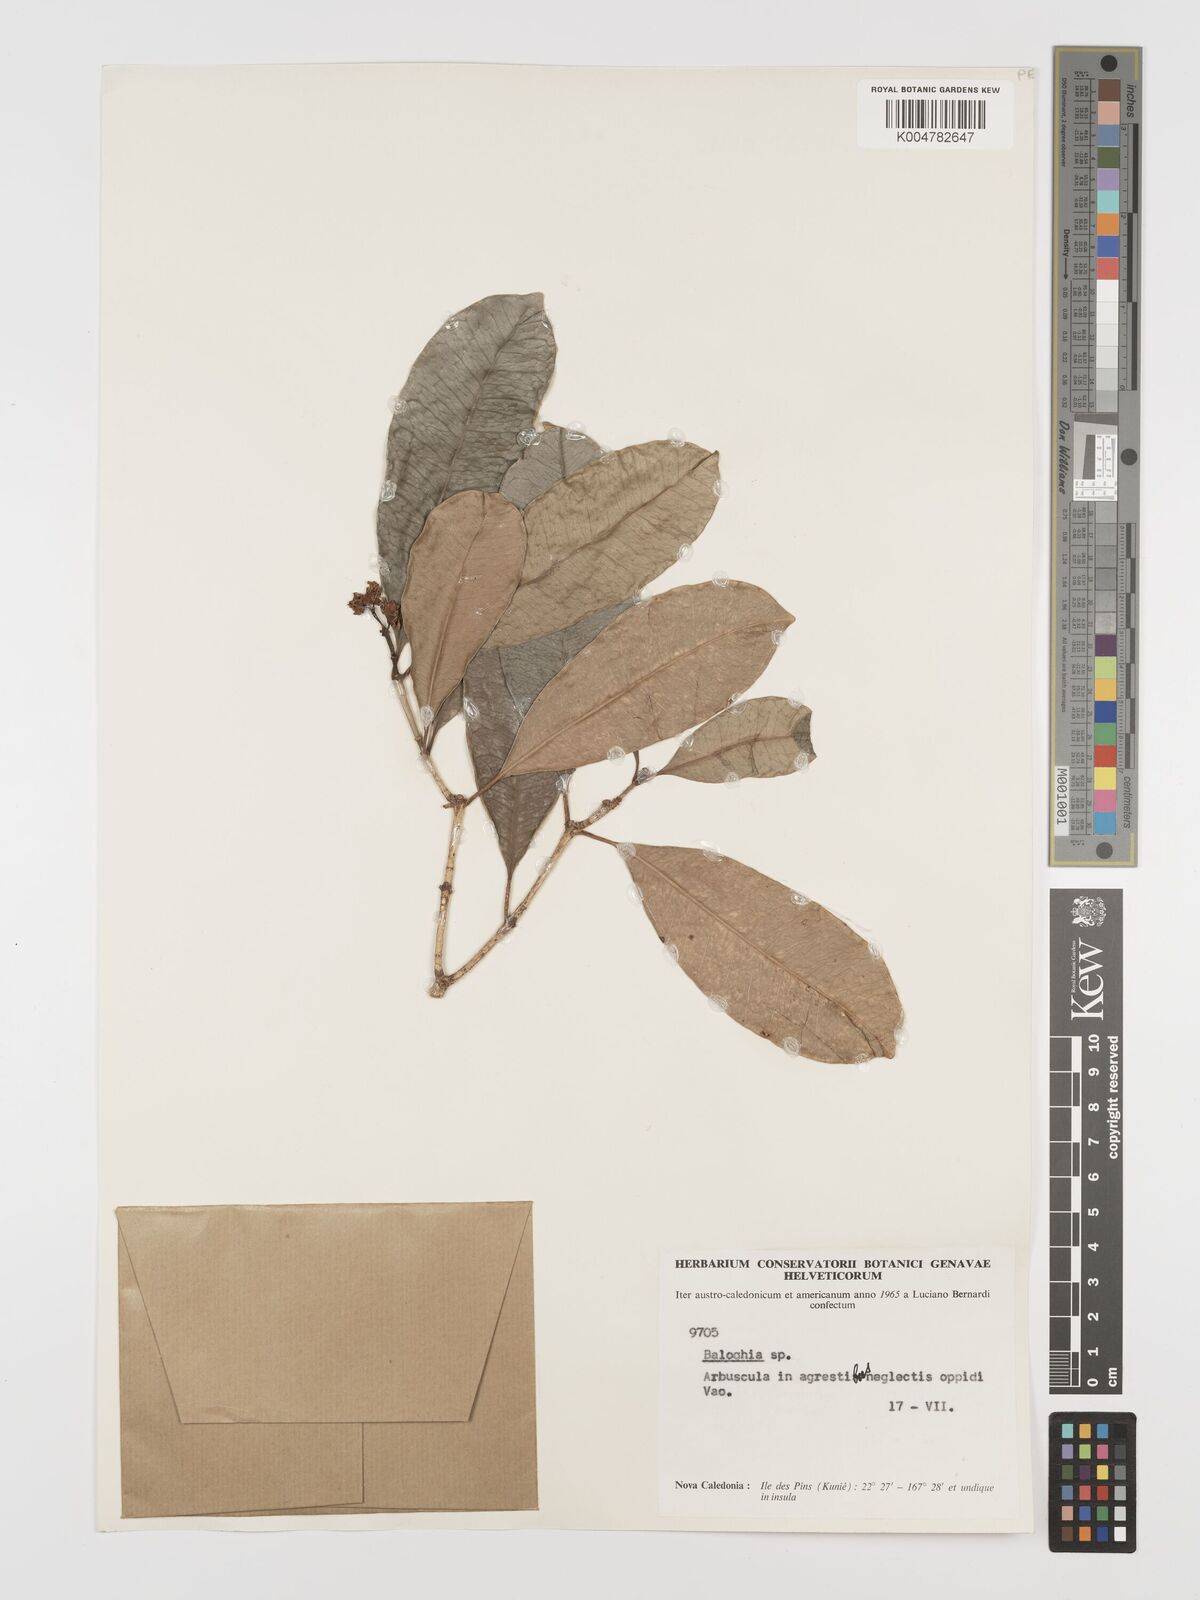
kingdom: Plantae
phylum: Tracheophyta
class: Magnoliopsida
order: Malpighiales
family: Euphorbiaceae
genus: Baloghia
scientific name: Baloghia inophylla
